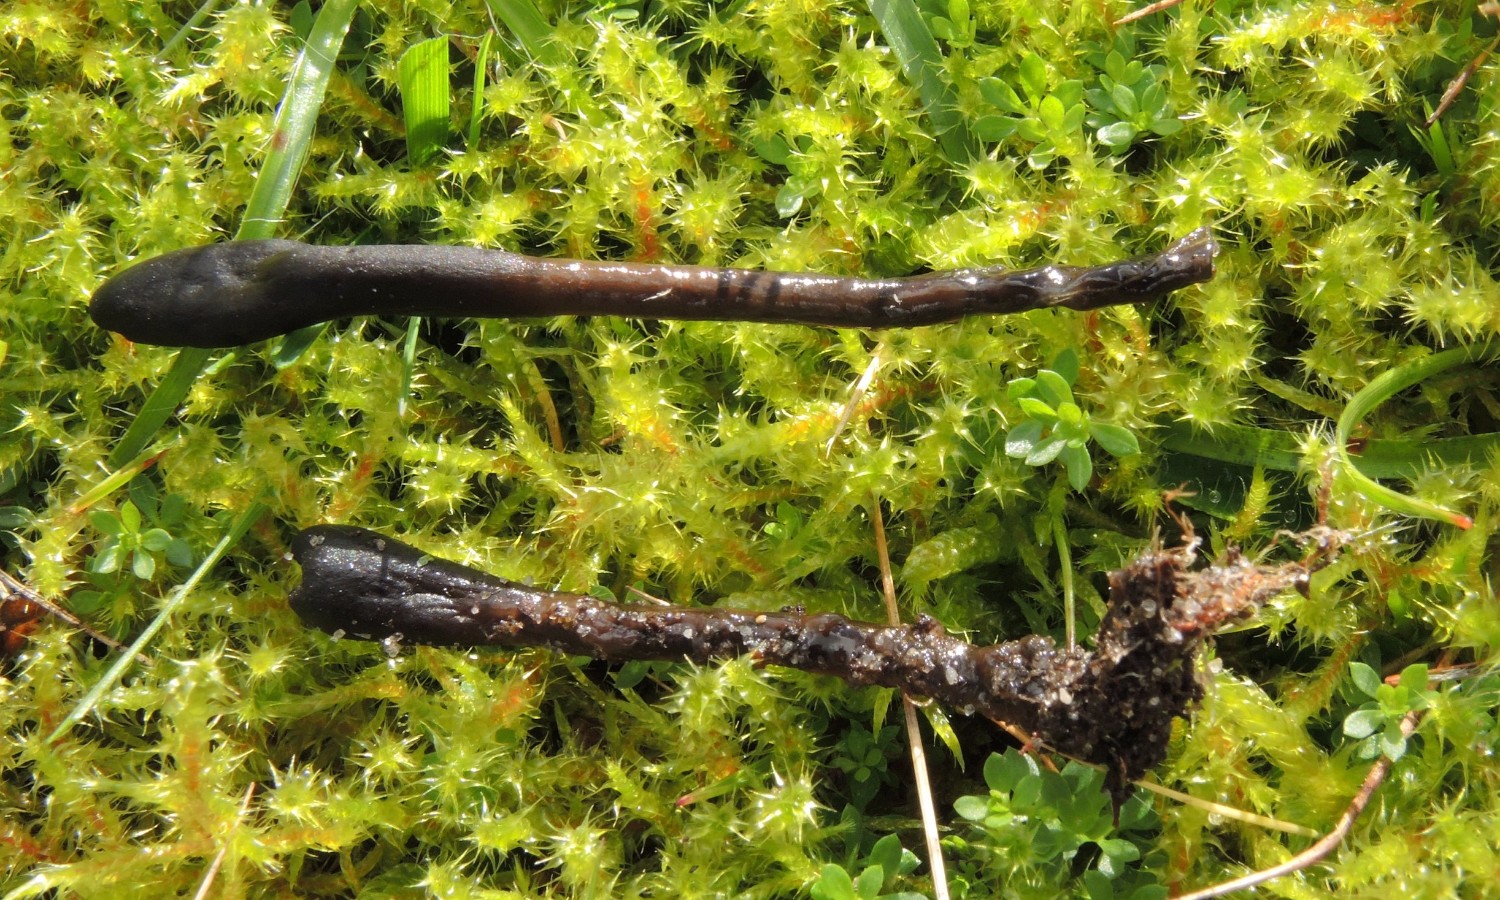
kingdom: Fungi
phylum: Ascomycota
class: Geoglossomycetes
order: Geoglossales
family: Geoglossaceae
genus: Glutinoglossum
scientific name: Glutinoglossum glutinosum
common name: slimet jordtunge
